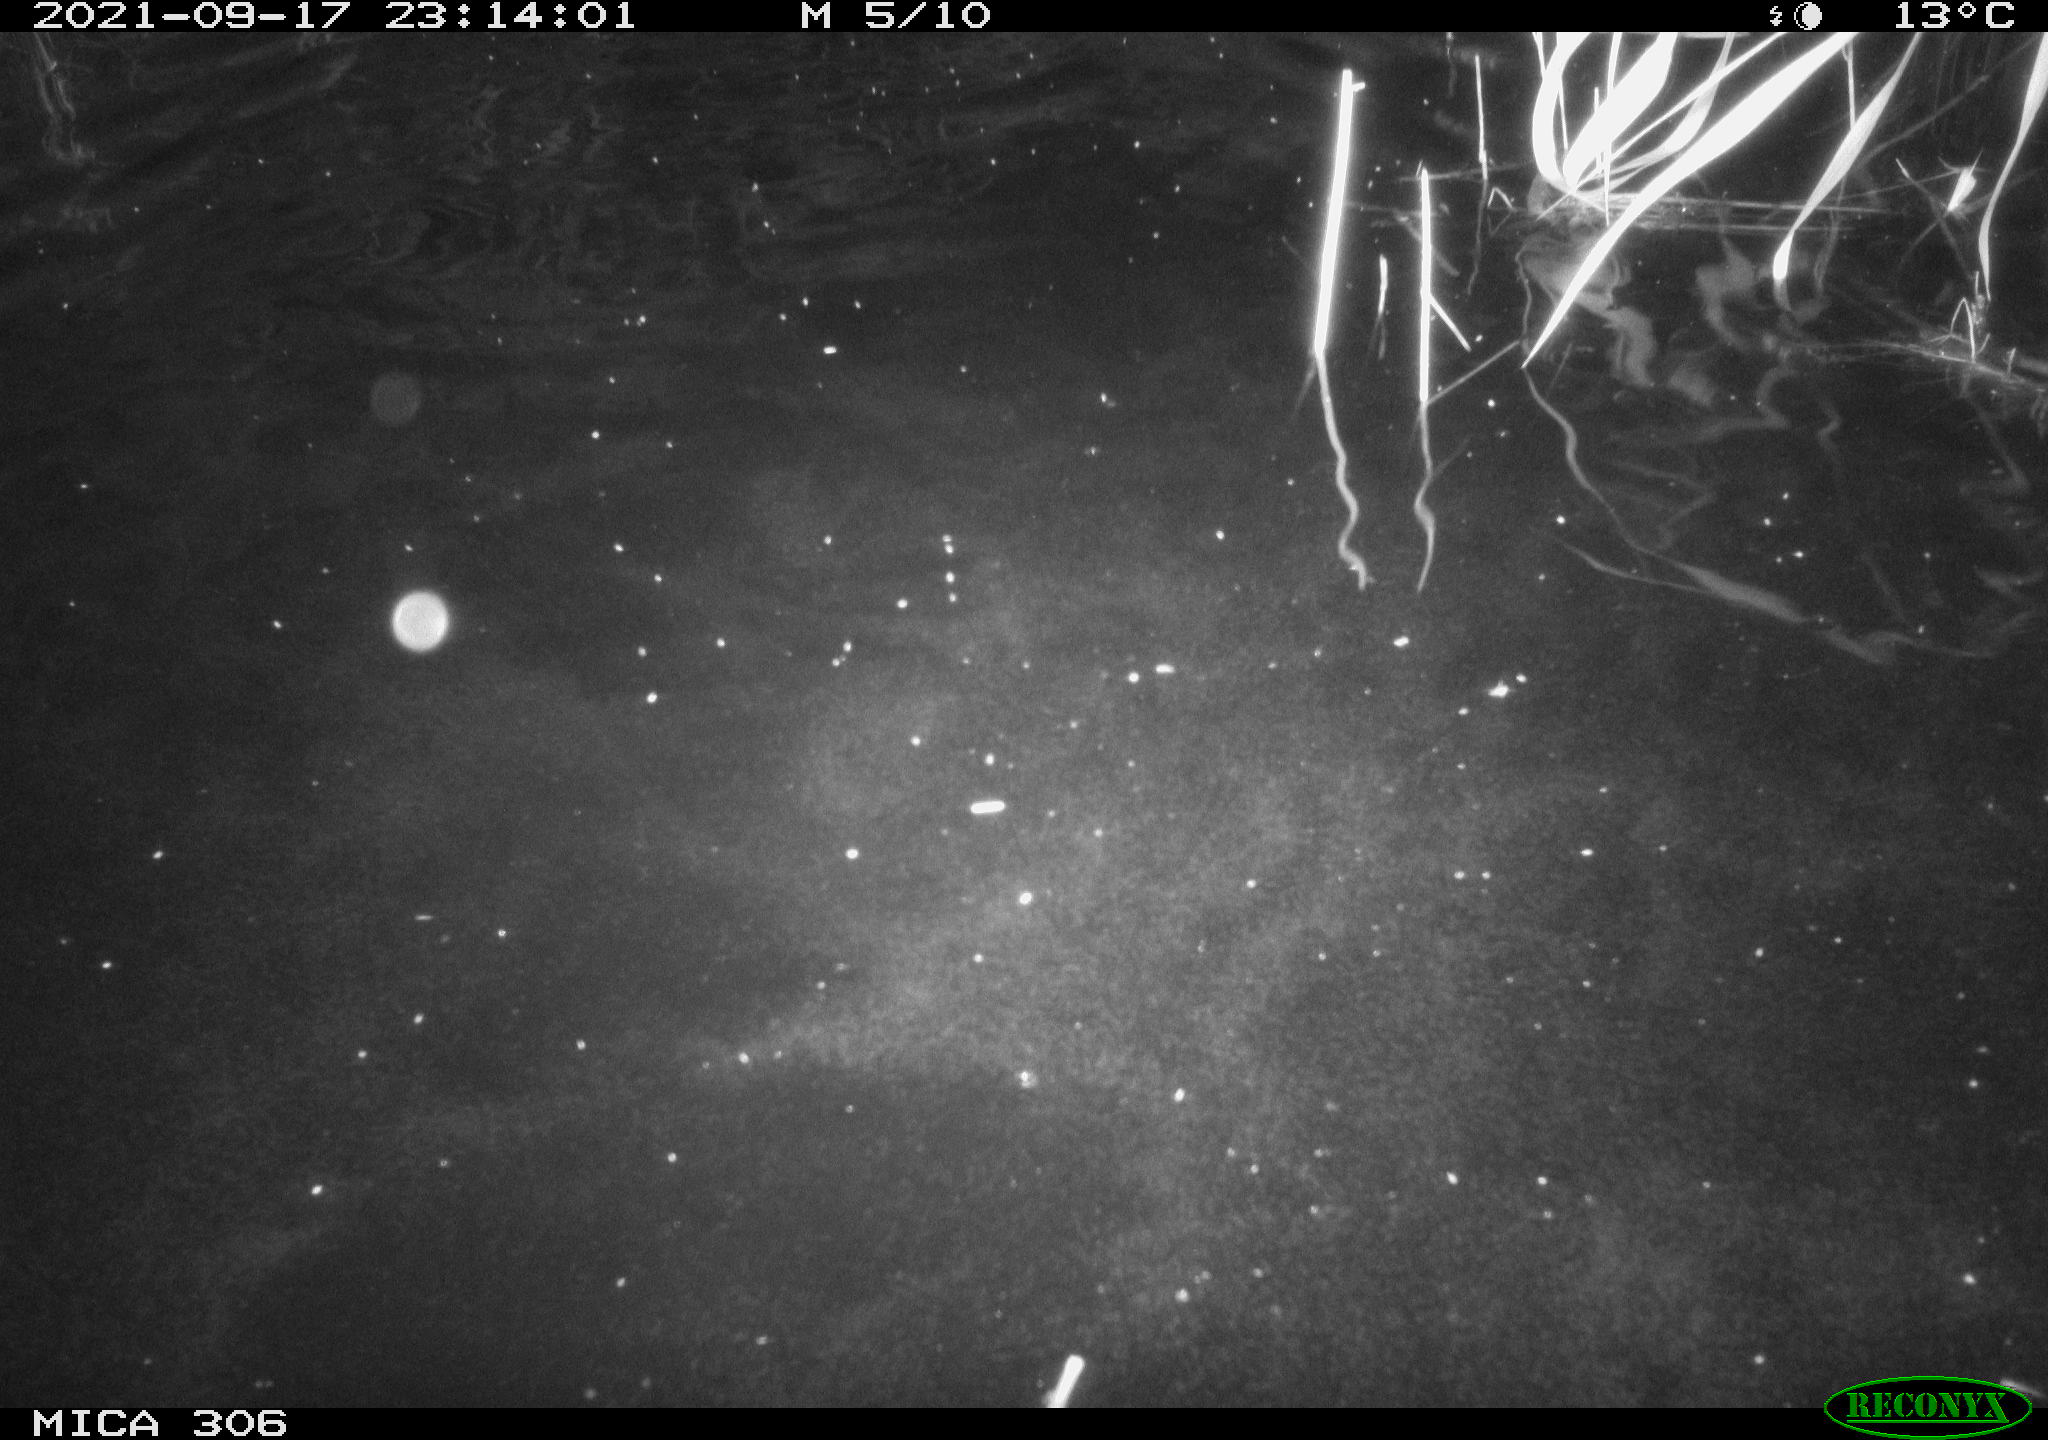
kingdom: Animalia
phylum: Chordata
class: Mammalia
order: Rodentia
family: Cricetidae
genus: Ondatra
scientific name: Ondatra zibethicus
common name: Muskrat
